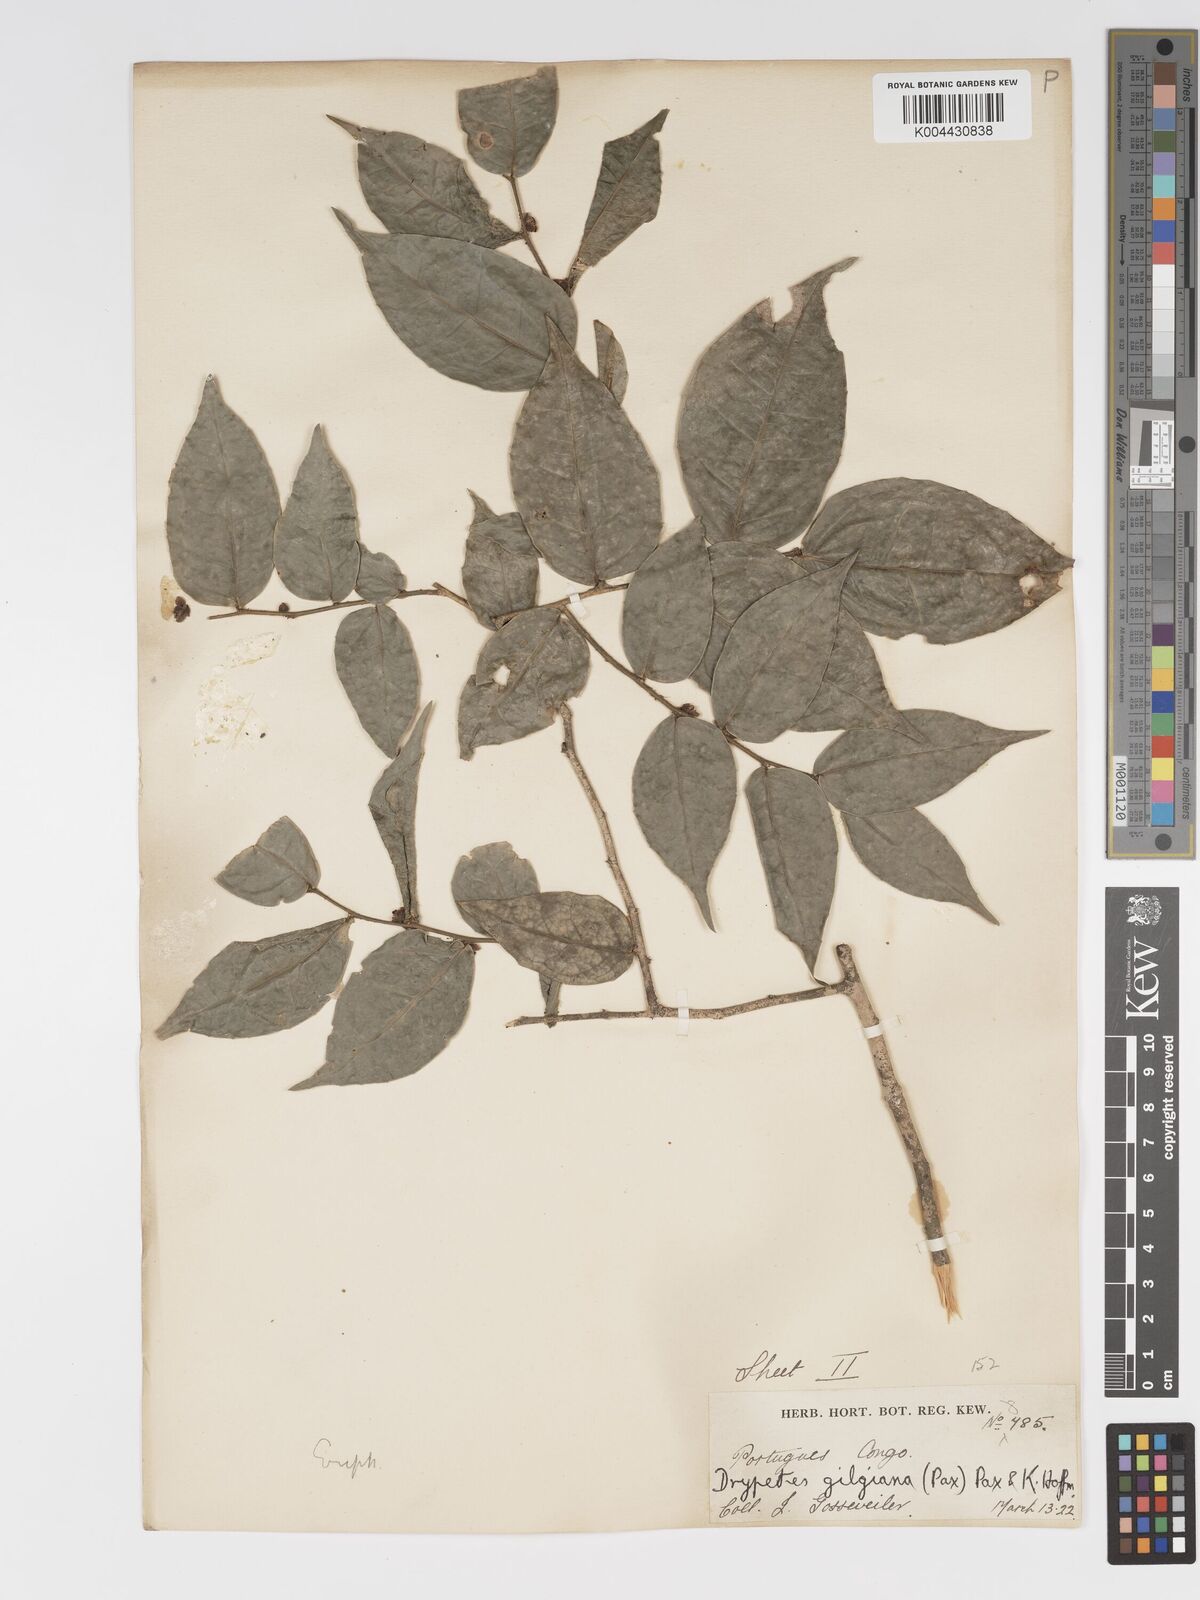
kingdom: Plantae
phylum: Tracheophyta
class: Magnoliopsida
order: Malpighiales
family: Putranjivaceae
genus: Drypetes
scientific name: Drypetes gilgiana
